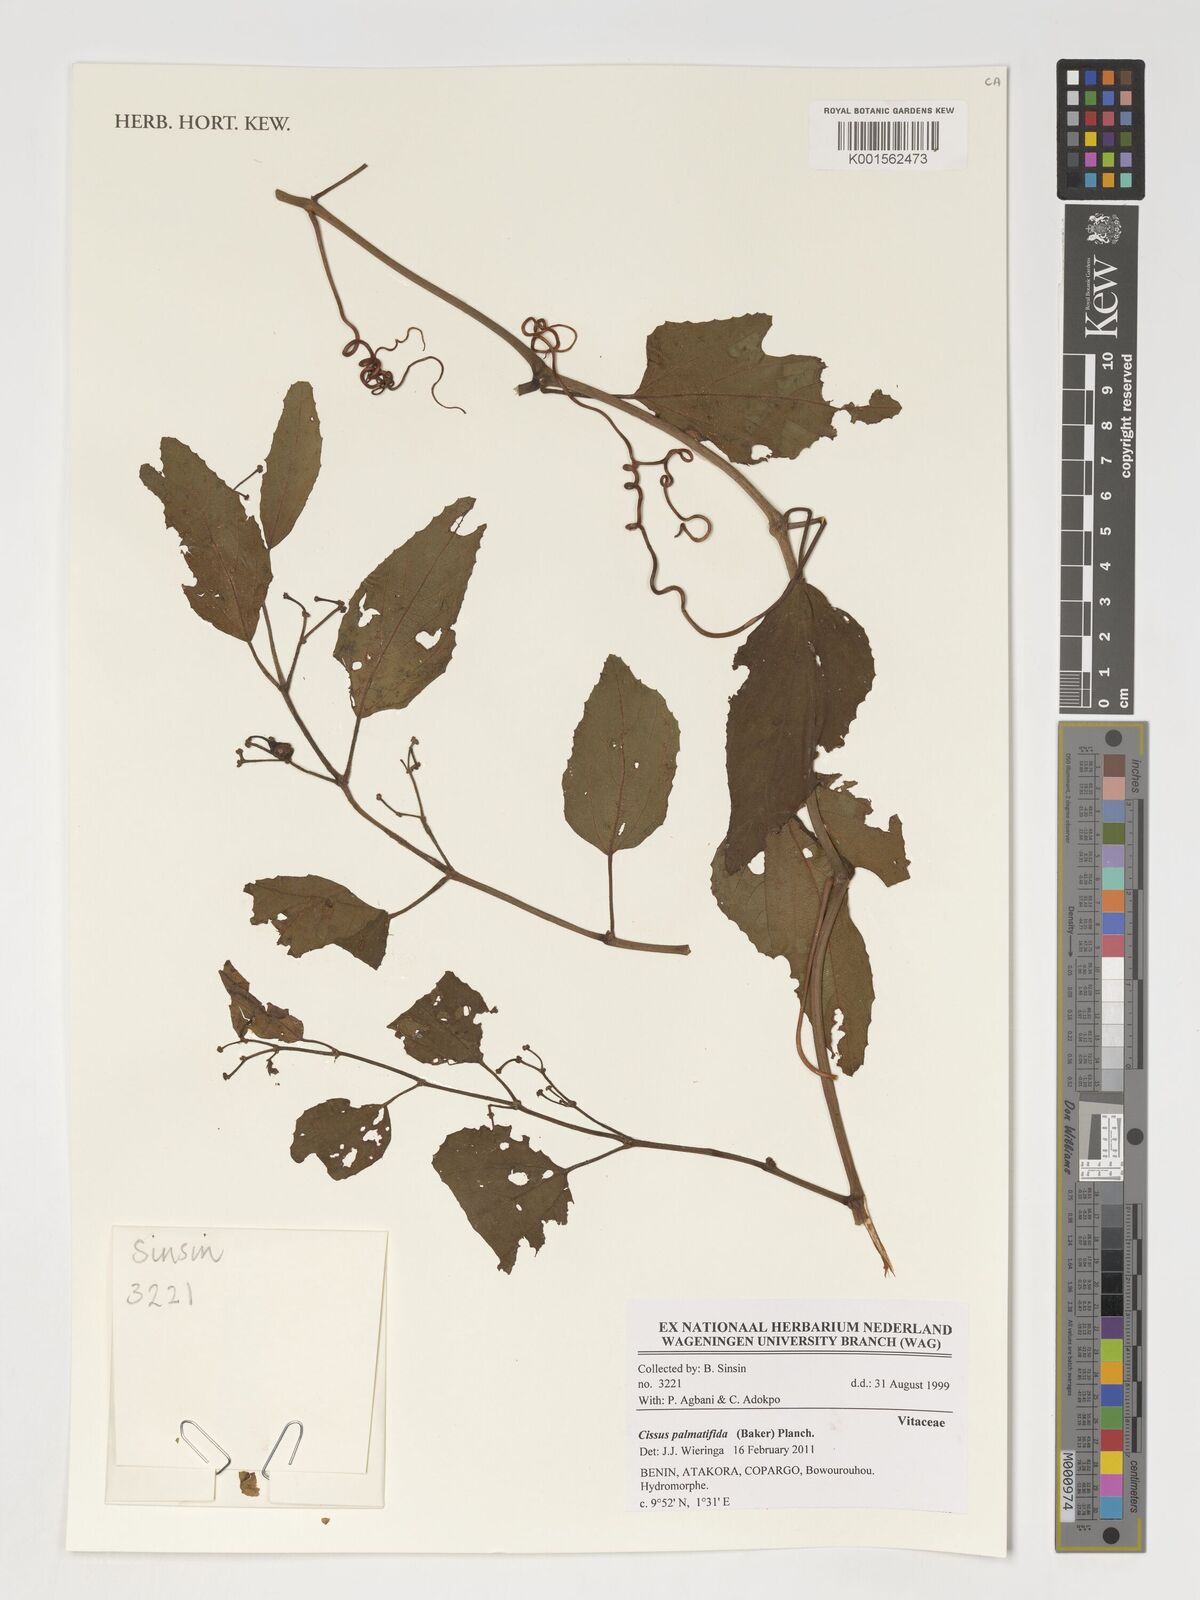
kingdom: Plantae
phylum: Tracheophyta
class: Magnoliopsida
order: Vitales
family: Vitaceae
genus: Cissus
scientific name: Cissus palmatifida
